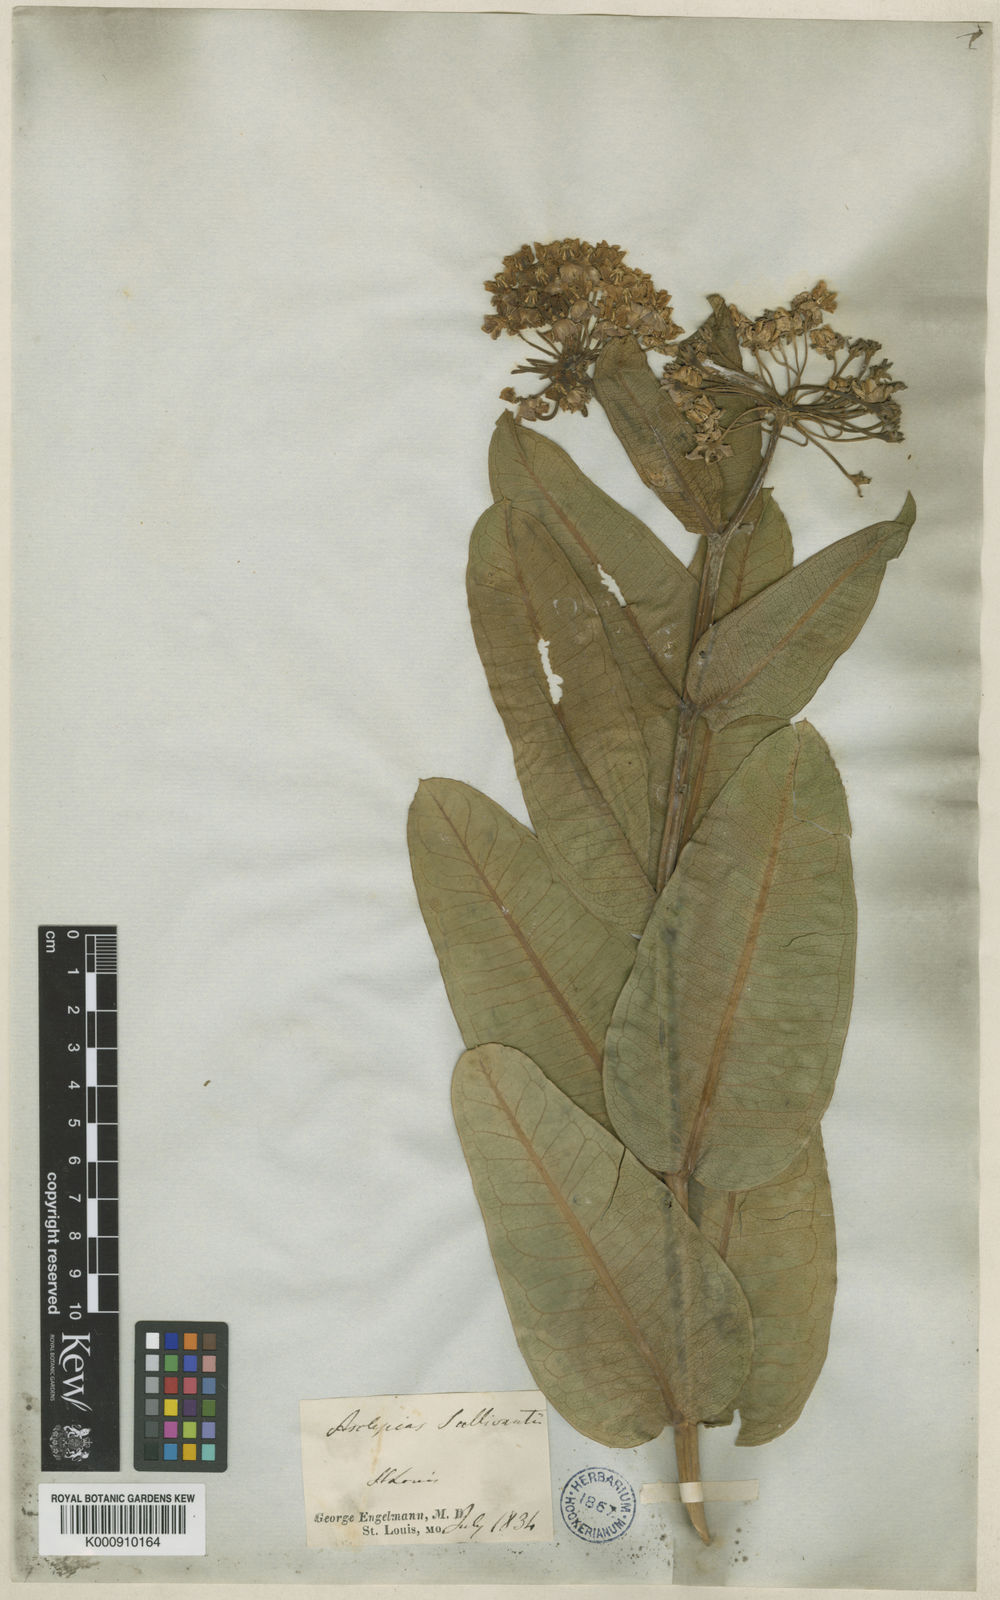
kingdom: Plantae
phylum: Tracheophyta
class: Magnoliopsida
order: Gentianales
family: Apocynaceae
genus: Asclepias
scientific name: Asclepias sullivantii
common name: Prairie milkweed
